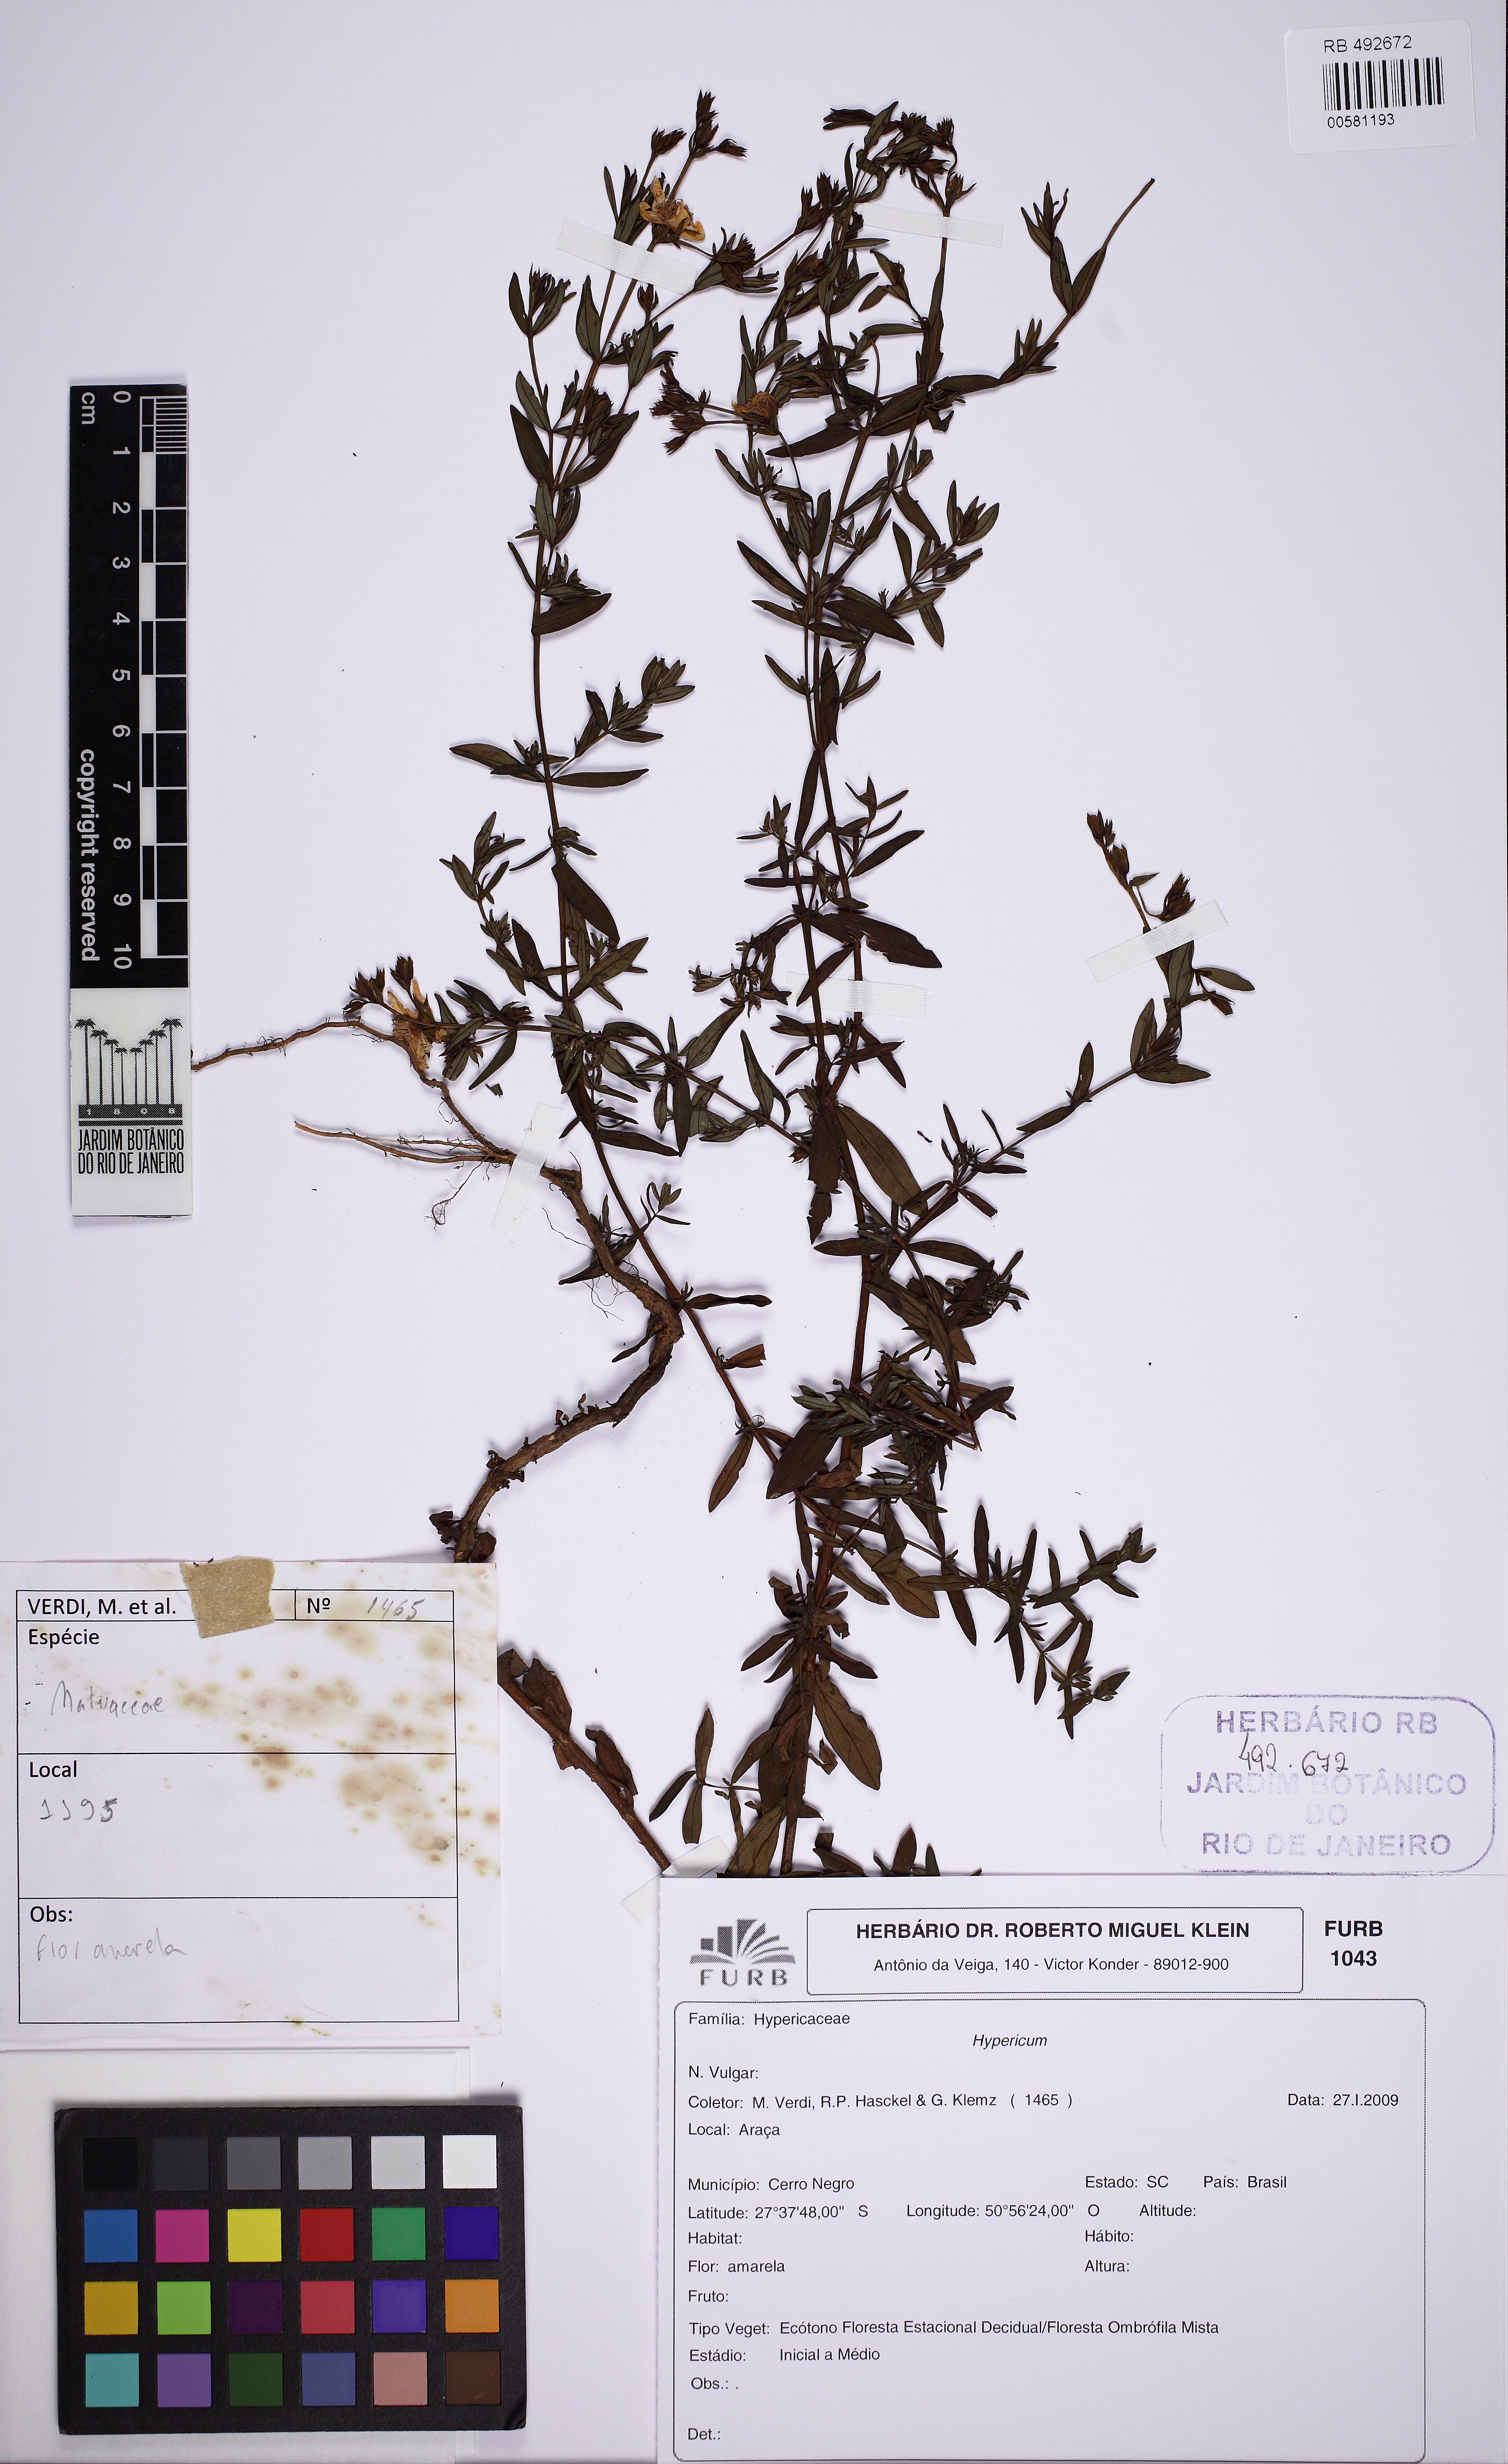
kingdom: Plantae
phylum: Tracheophyta
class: Magnoliopsida
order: Malpighiales
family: Hypericaceae
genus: Hypericum
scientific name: Hypericum brasiliense
